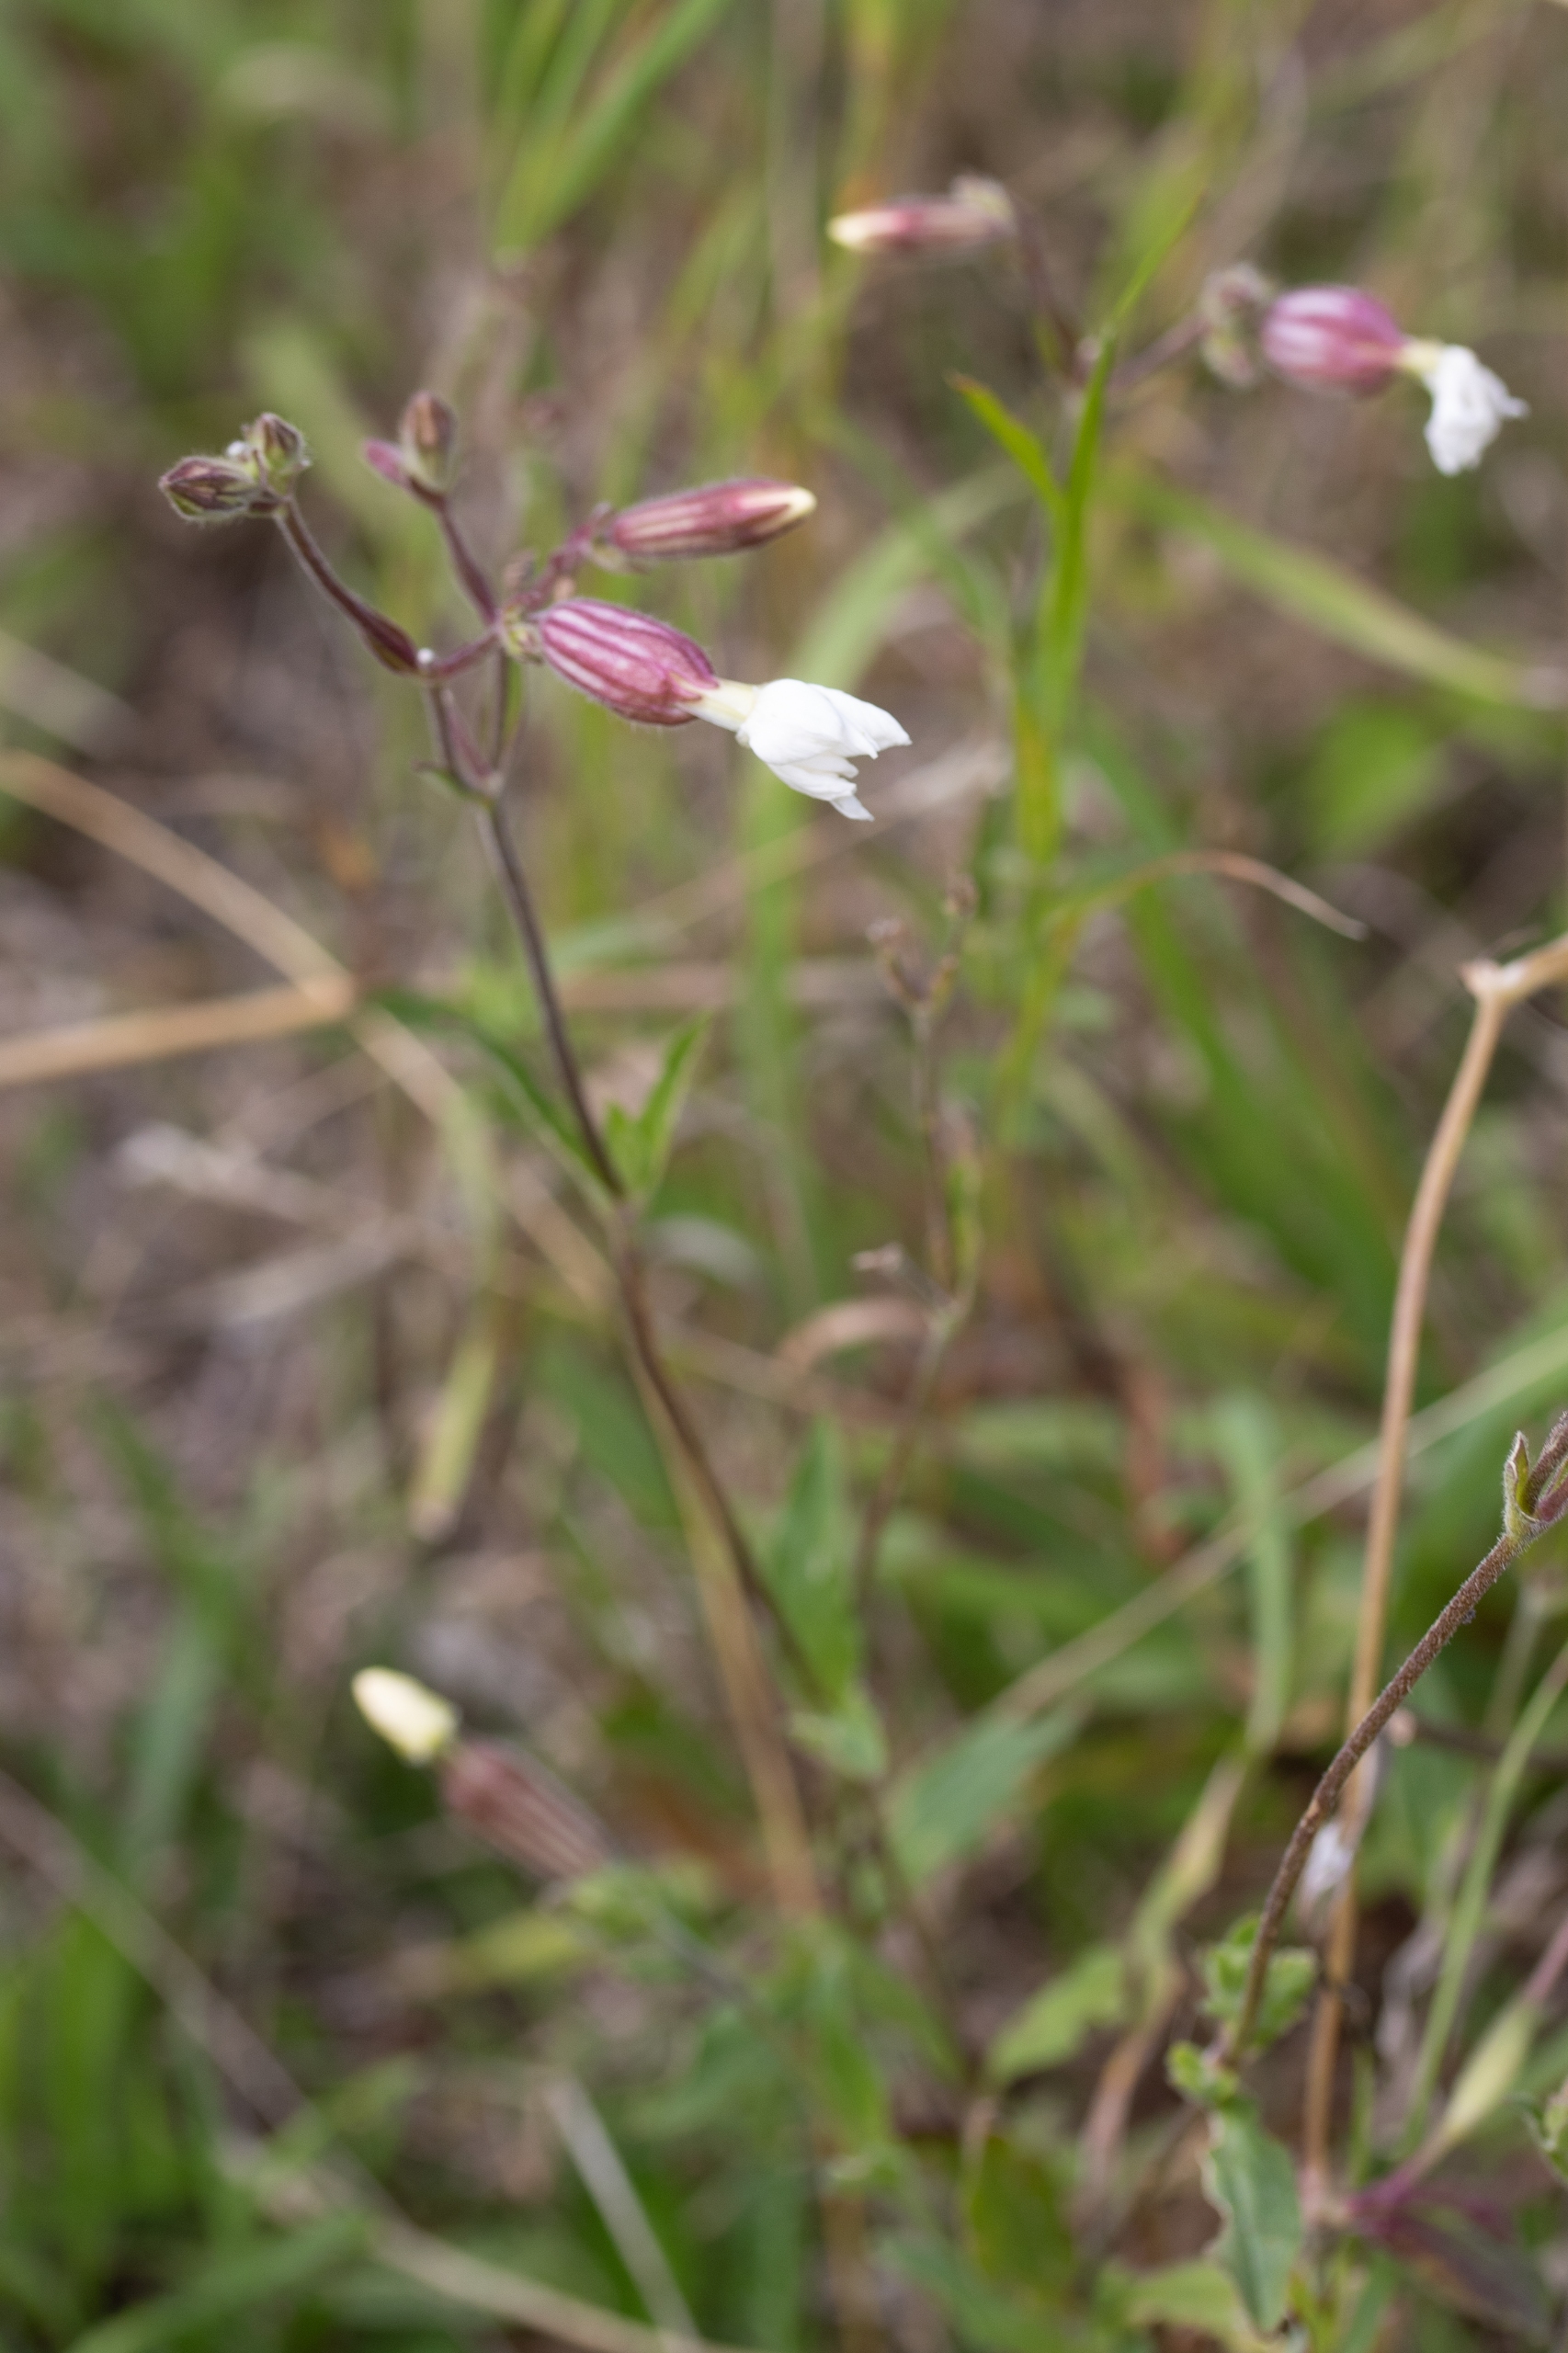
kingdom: Plantae
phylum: Tracheophyta
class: Magnoliopsida
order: Caryophyllales
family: Caryophyllaceae
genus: Silene
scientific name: Silene vulgaris
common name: Blæresmælde
